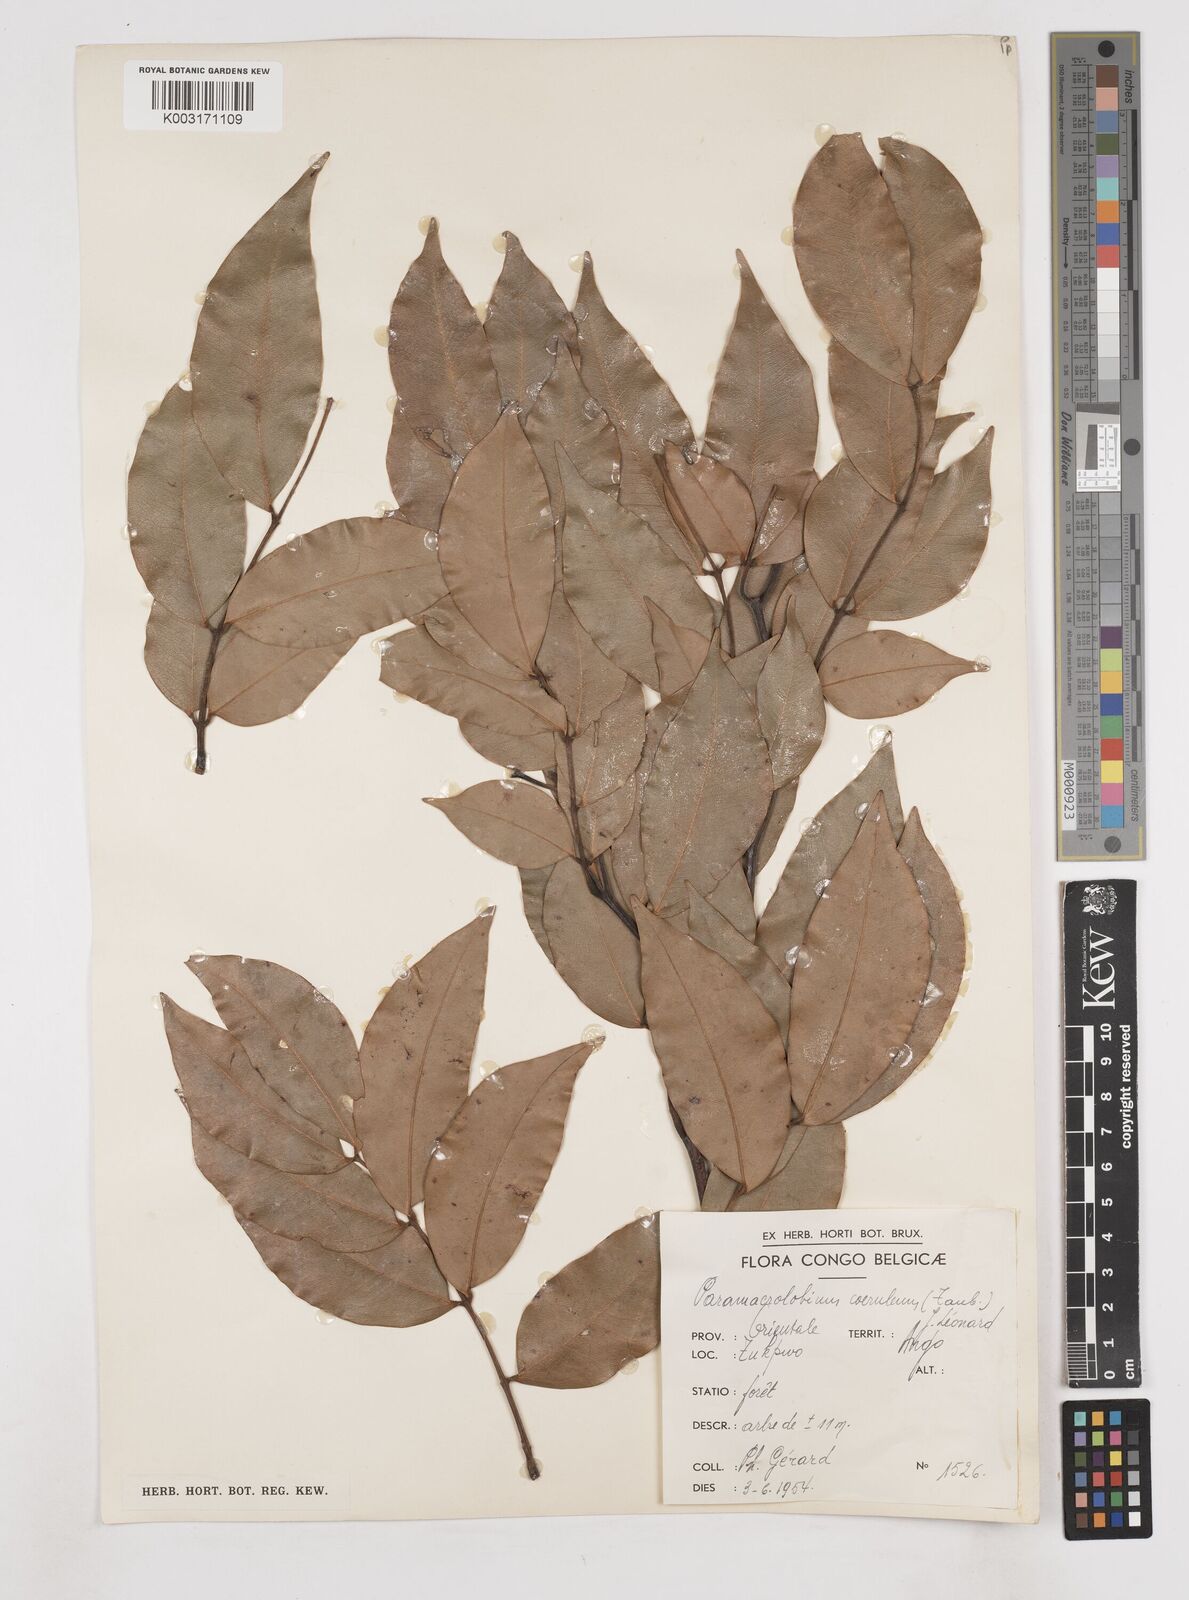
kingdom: Plantae
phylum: Tracheophyta
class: Magnoliopsida
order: Fabales
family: Fabaceae
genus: Paramacrolobium
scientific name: Paramacrolobium coeruleum
